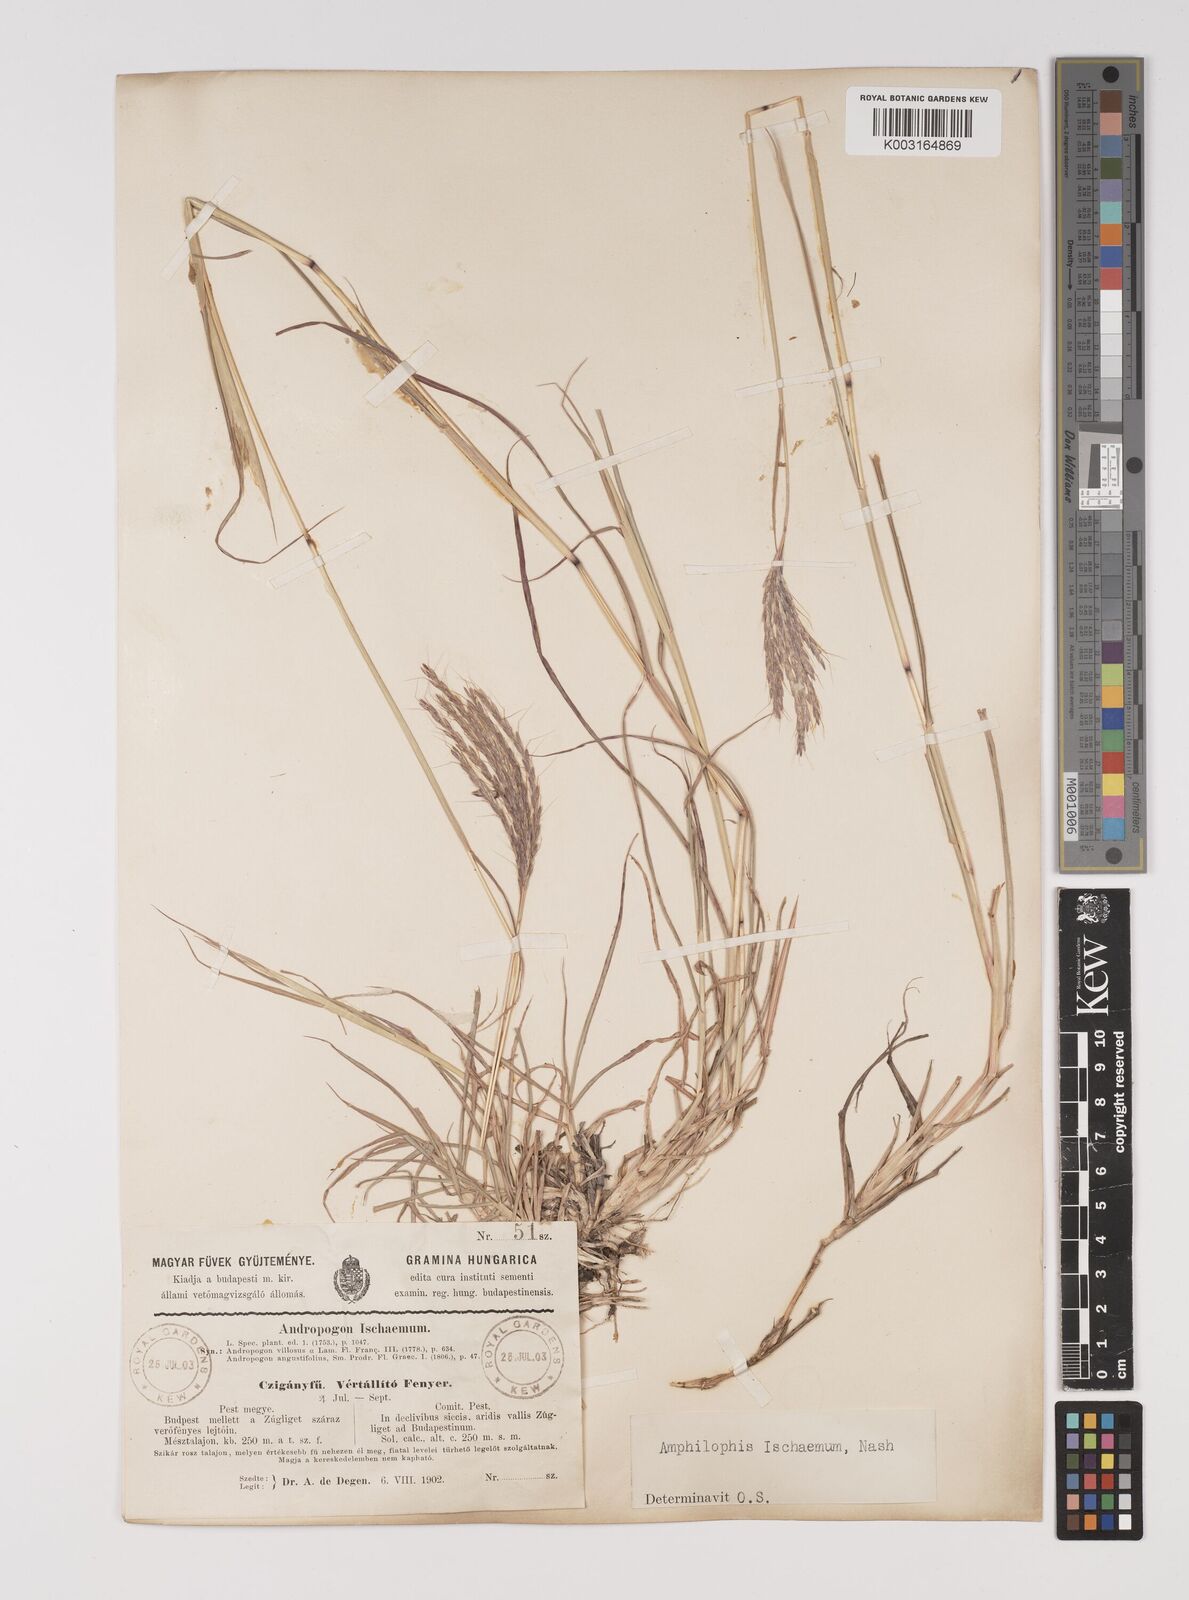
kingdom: Plantae
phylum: Tracheophyta
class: Liliopsida
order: Poales
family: Poaceae
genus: Bothriochloa
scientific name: Bothriochloa ischaemum
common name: Yellow bluestem
